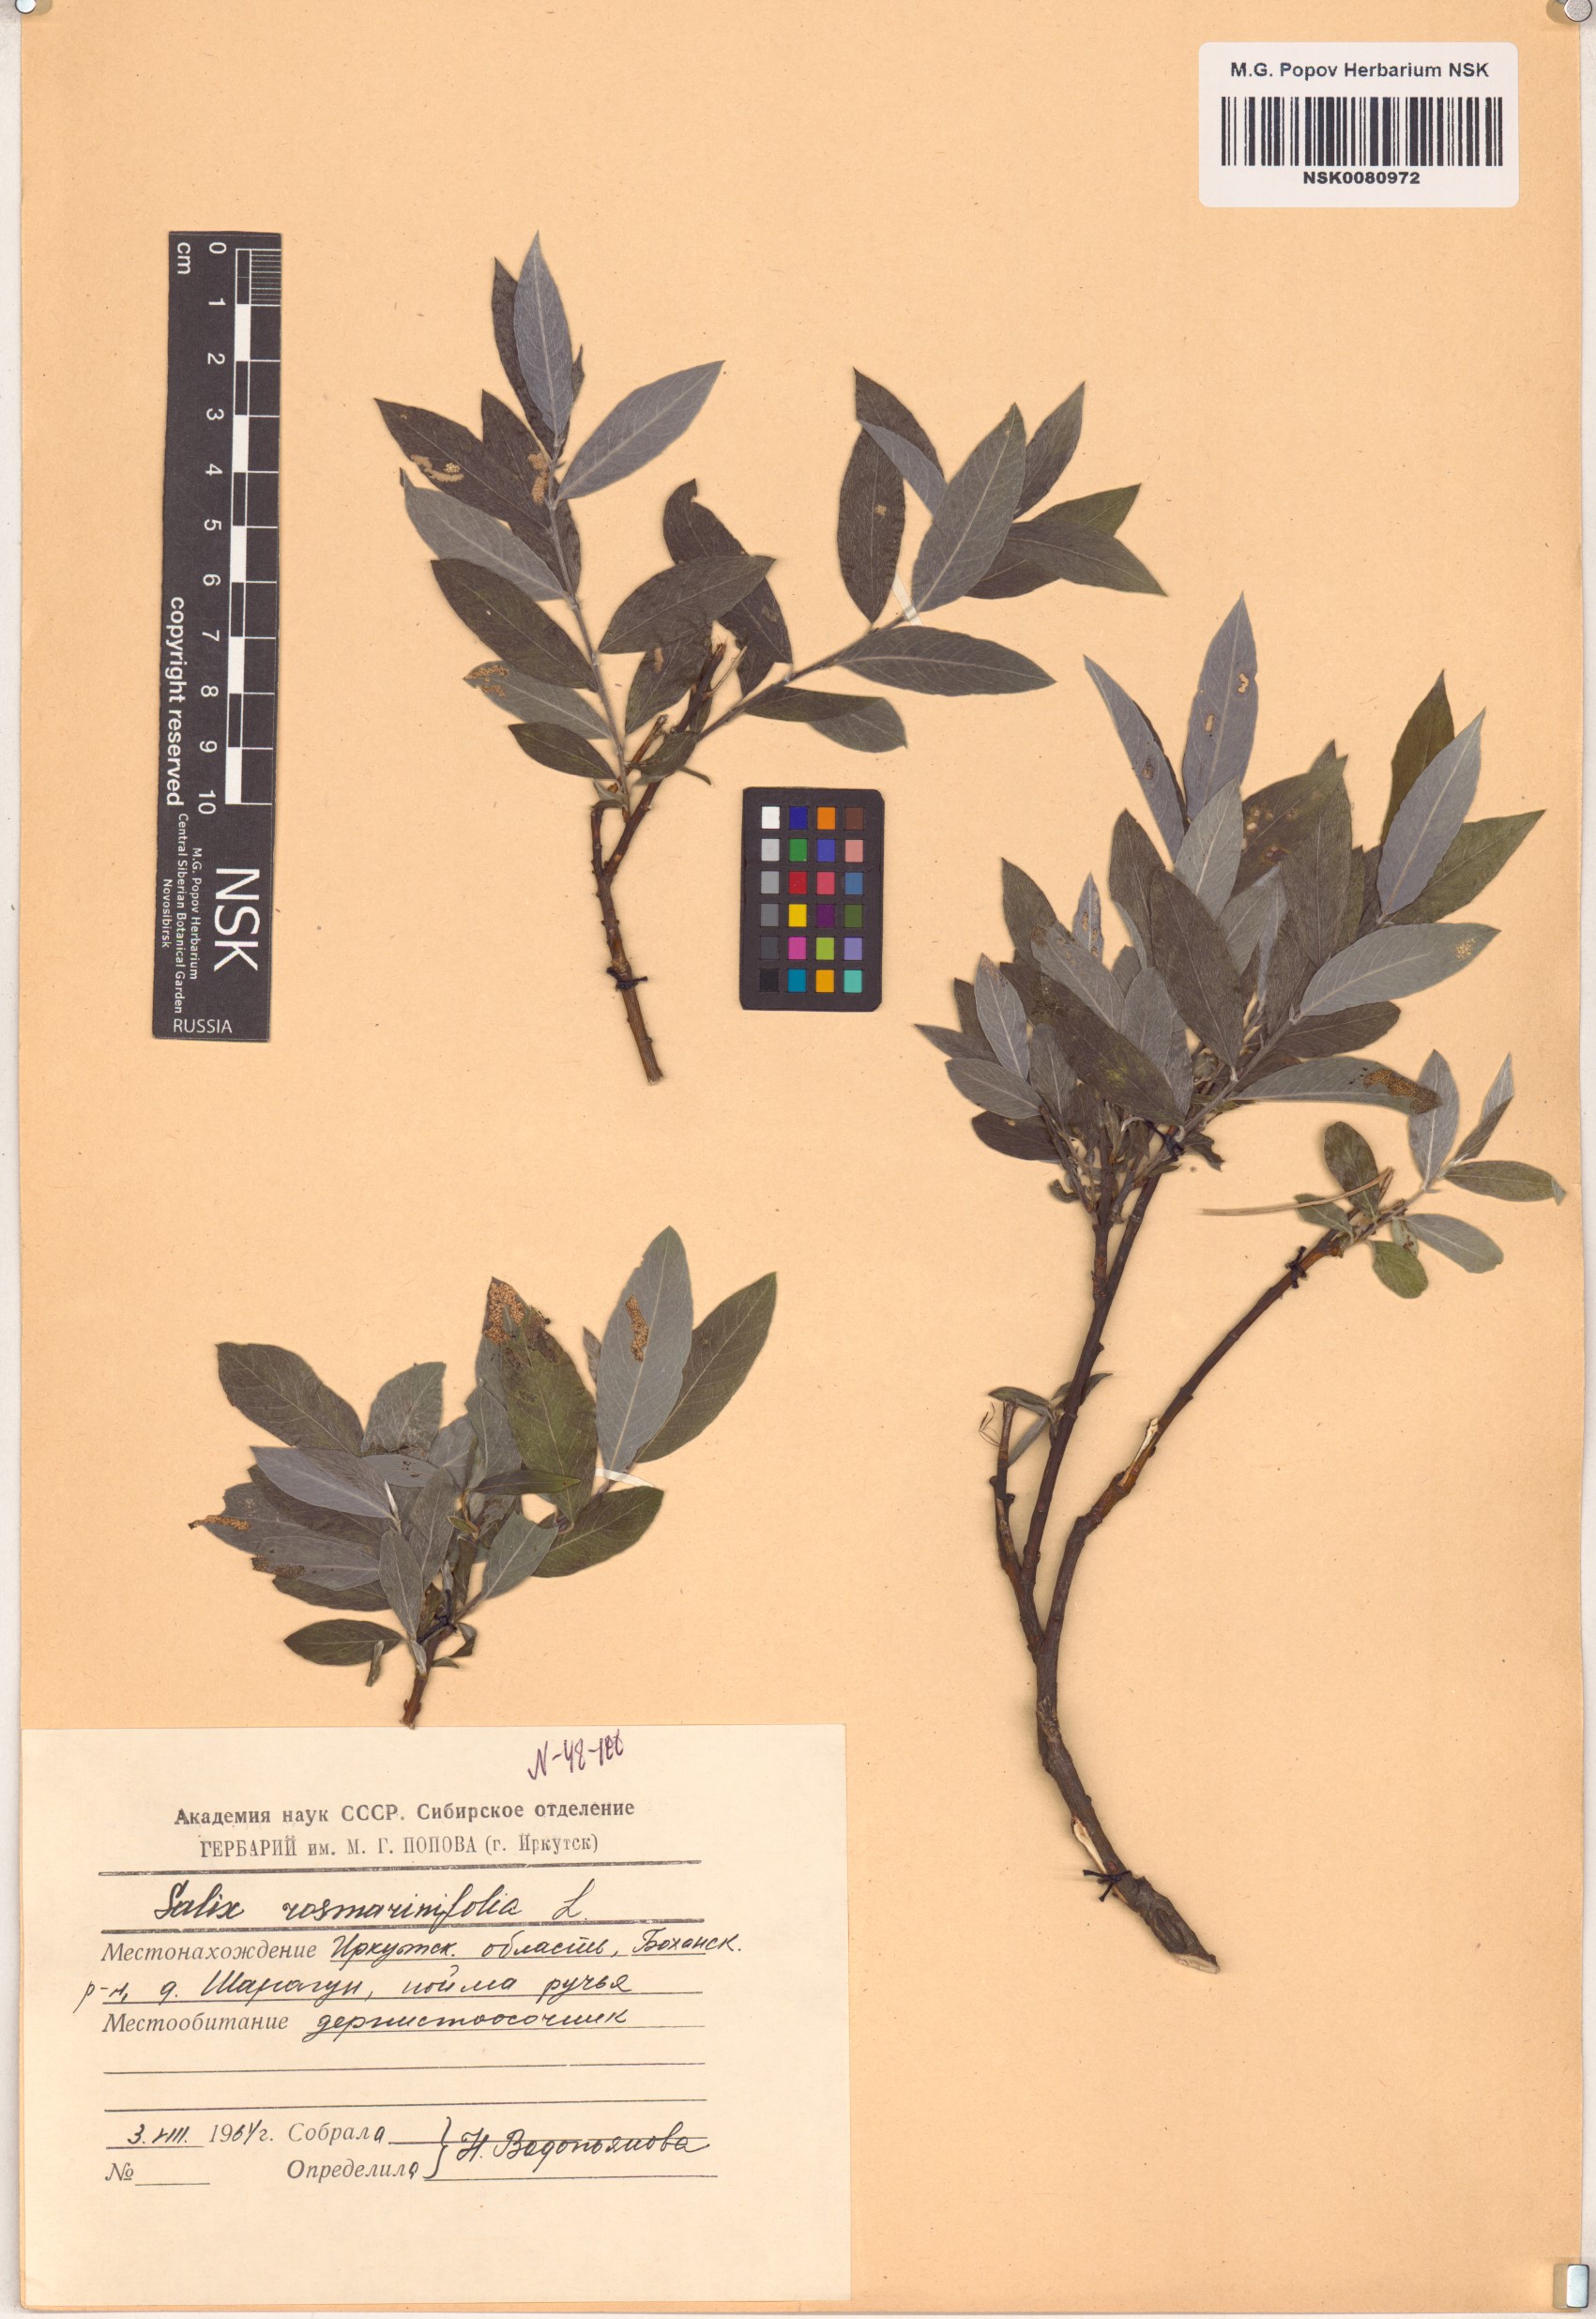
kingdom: Plantae
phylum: Tracheophyta
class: Magnoliopsida
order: Malpighiales
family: Salicaceae
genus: Salix
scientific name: Salix rosmarinifolia
